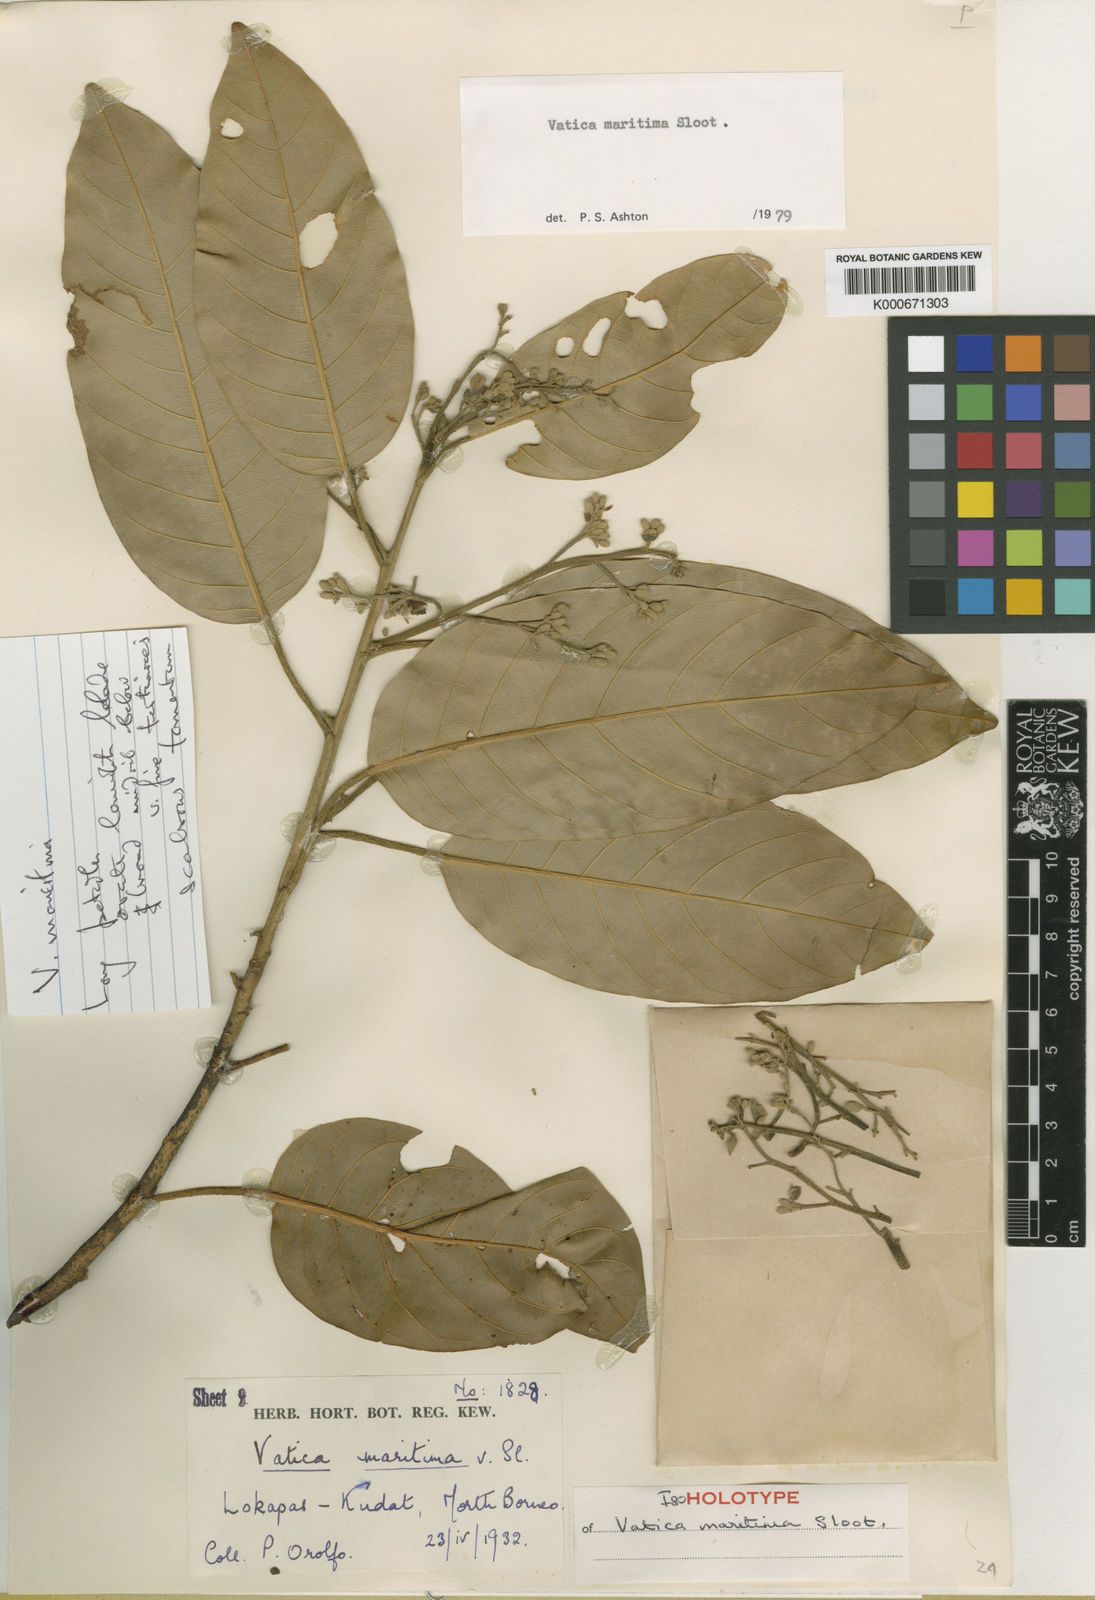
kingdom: Plantae
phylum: Tracheophyta
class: Magnoliopsida
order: Malvales
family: Dipterocarpaceae
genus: Vatica
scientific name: Vatica maritima
